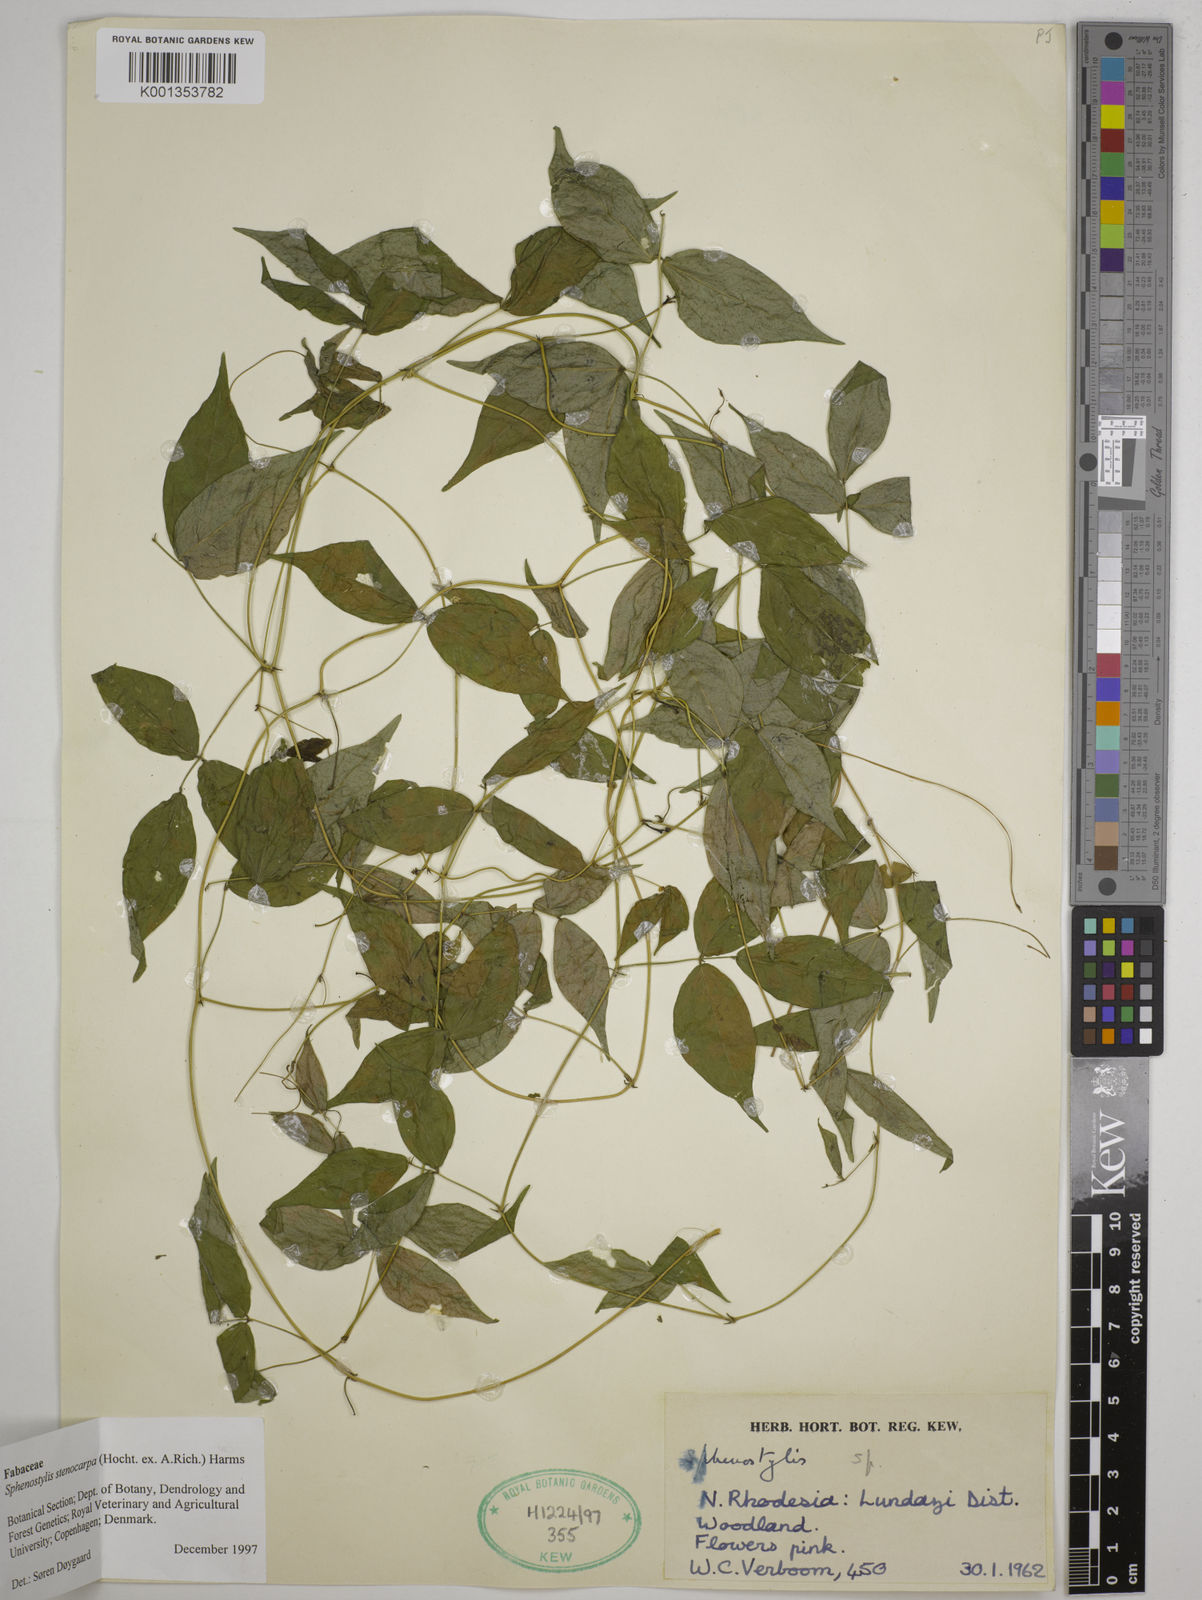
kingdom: Plantae
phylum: Tracheophyta
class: Magnoliopsida
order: Fabales
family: Fabaceae
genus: Sphenostylis
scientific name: Sphenostylis stenocarpa
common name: Yam-pea
